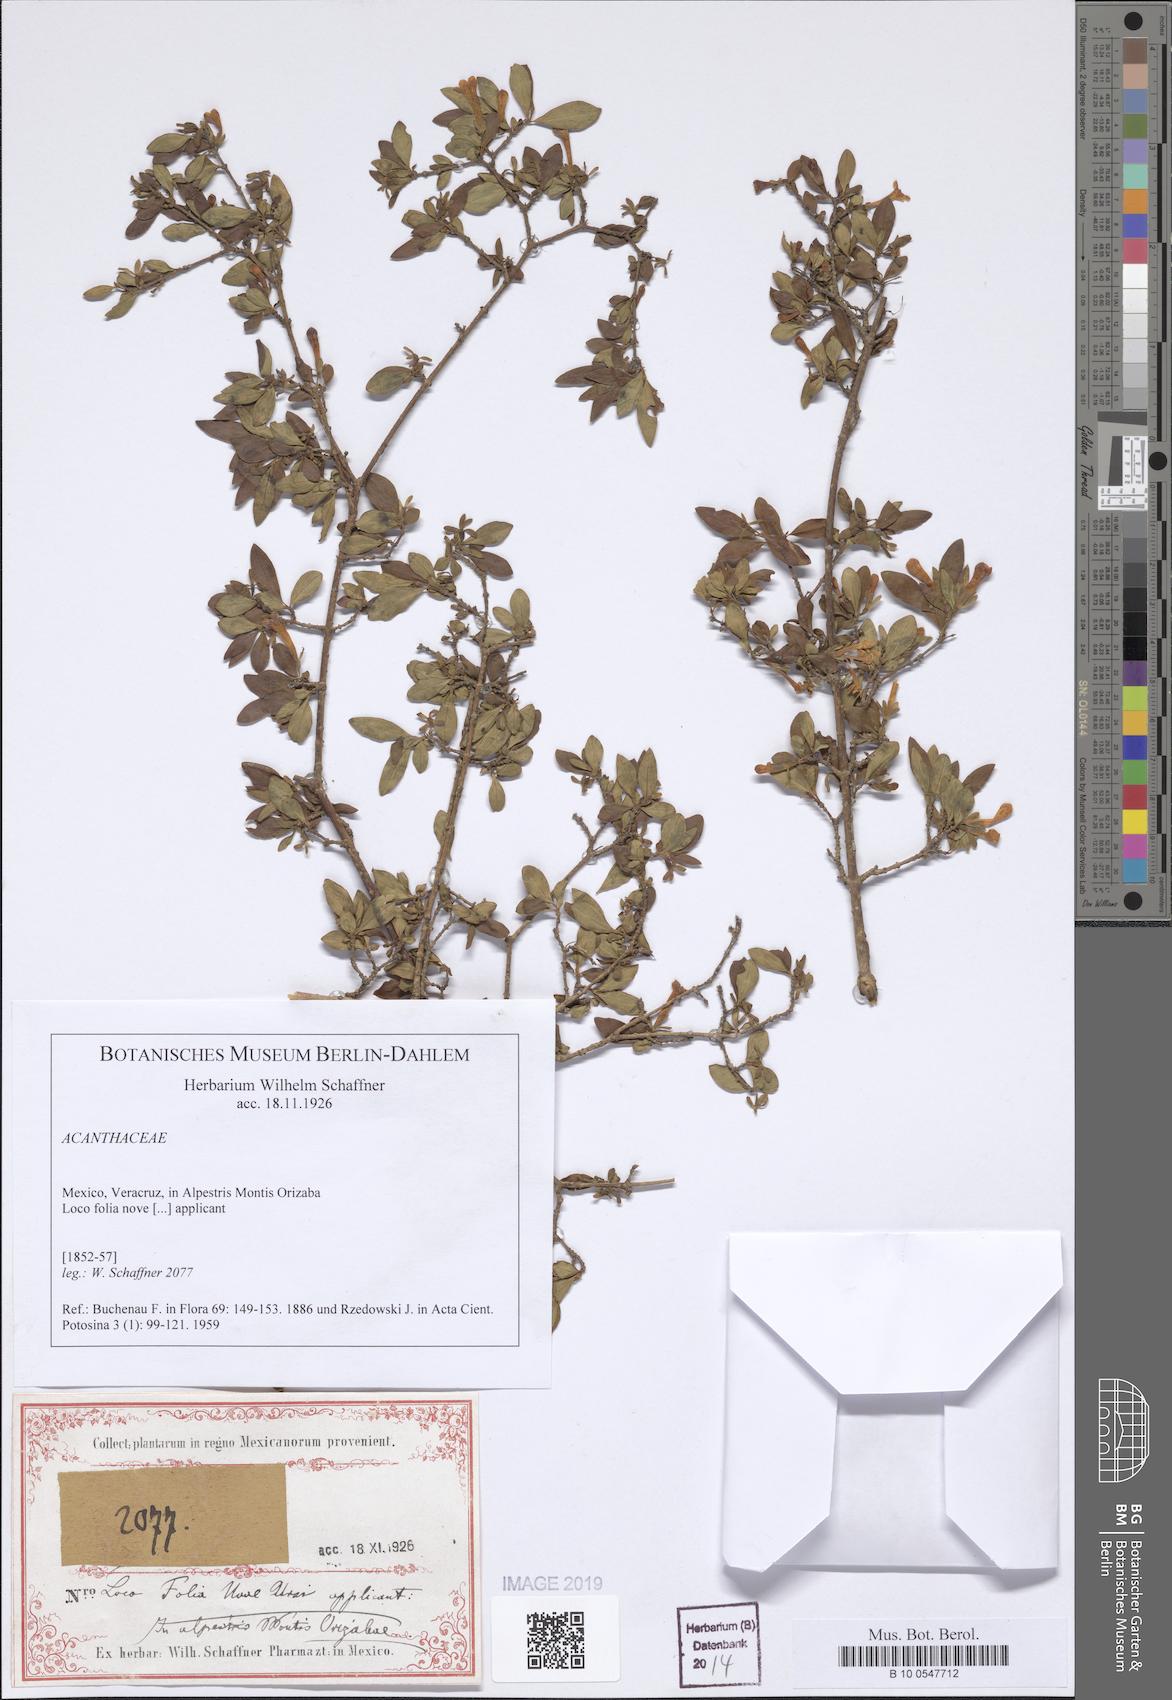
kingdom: Plantae
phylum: Tracheophyta
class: Magnoliopsida
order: Lamiales
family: Acanthaceae
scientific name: Acanthaceae
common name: Acanthaceae
